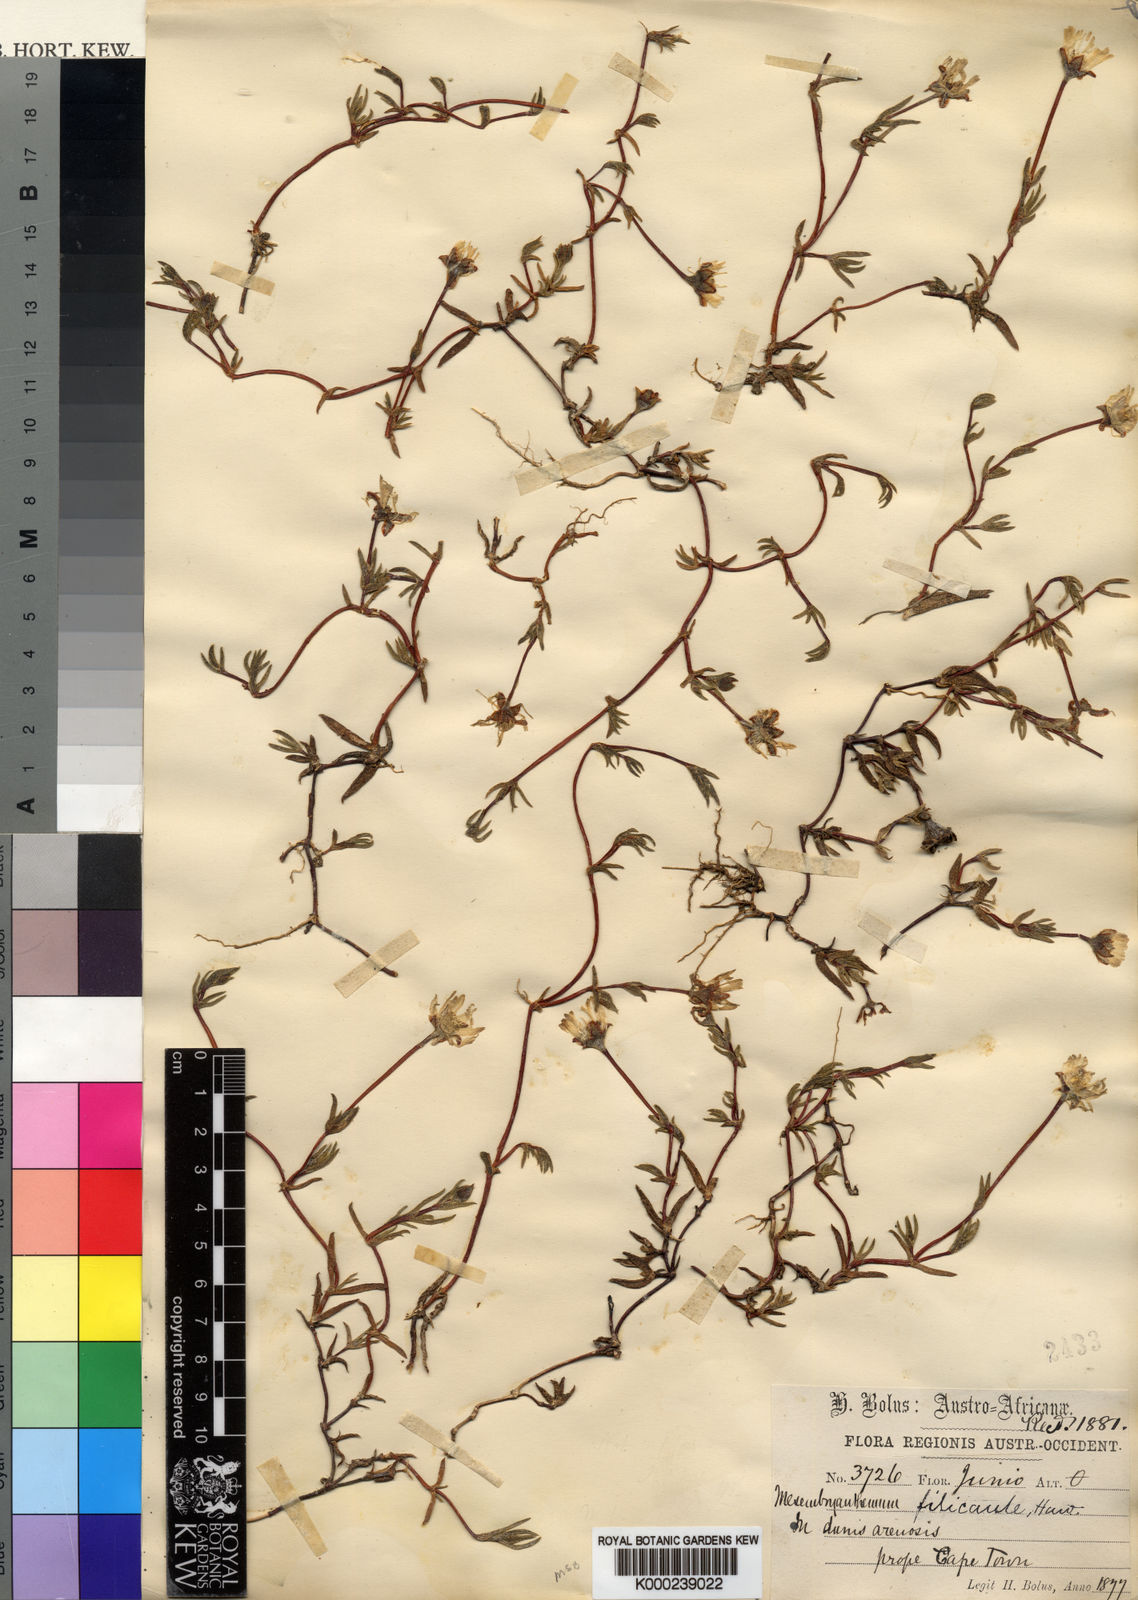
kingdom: Plantae
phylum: Tracheophyta
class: Magnoliopsida
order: Caryophyllales
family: Aizoaceae
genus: Lampranthus
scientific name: Lampranthus filicaulis
